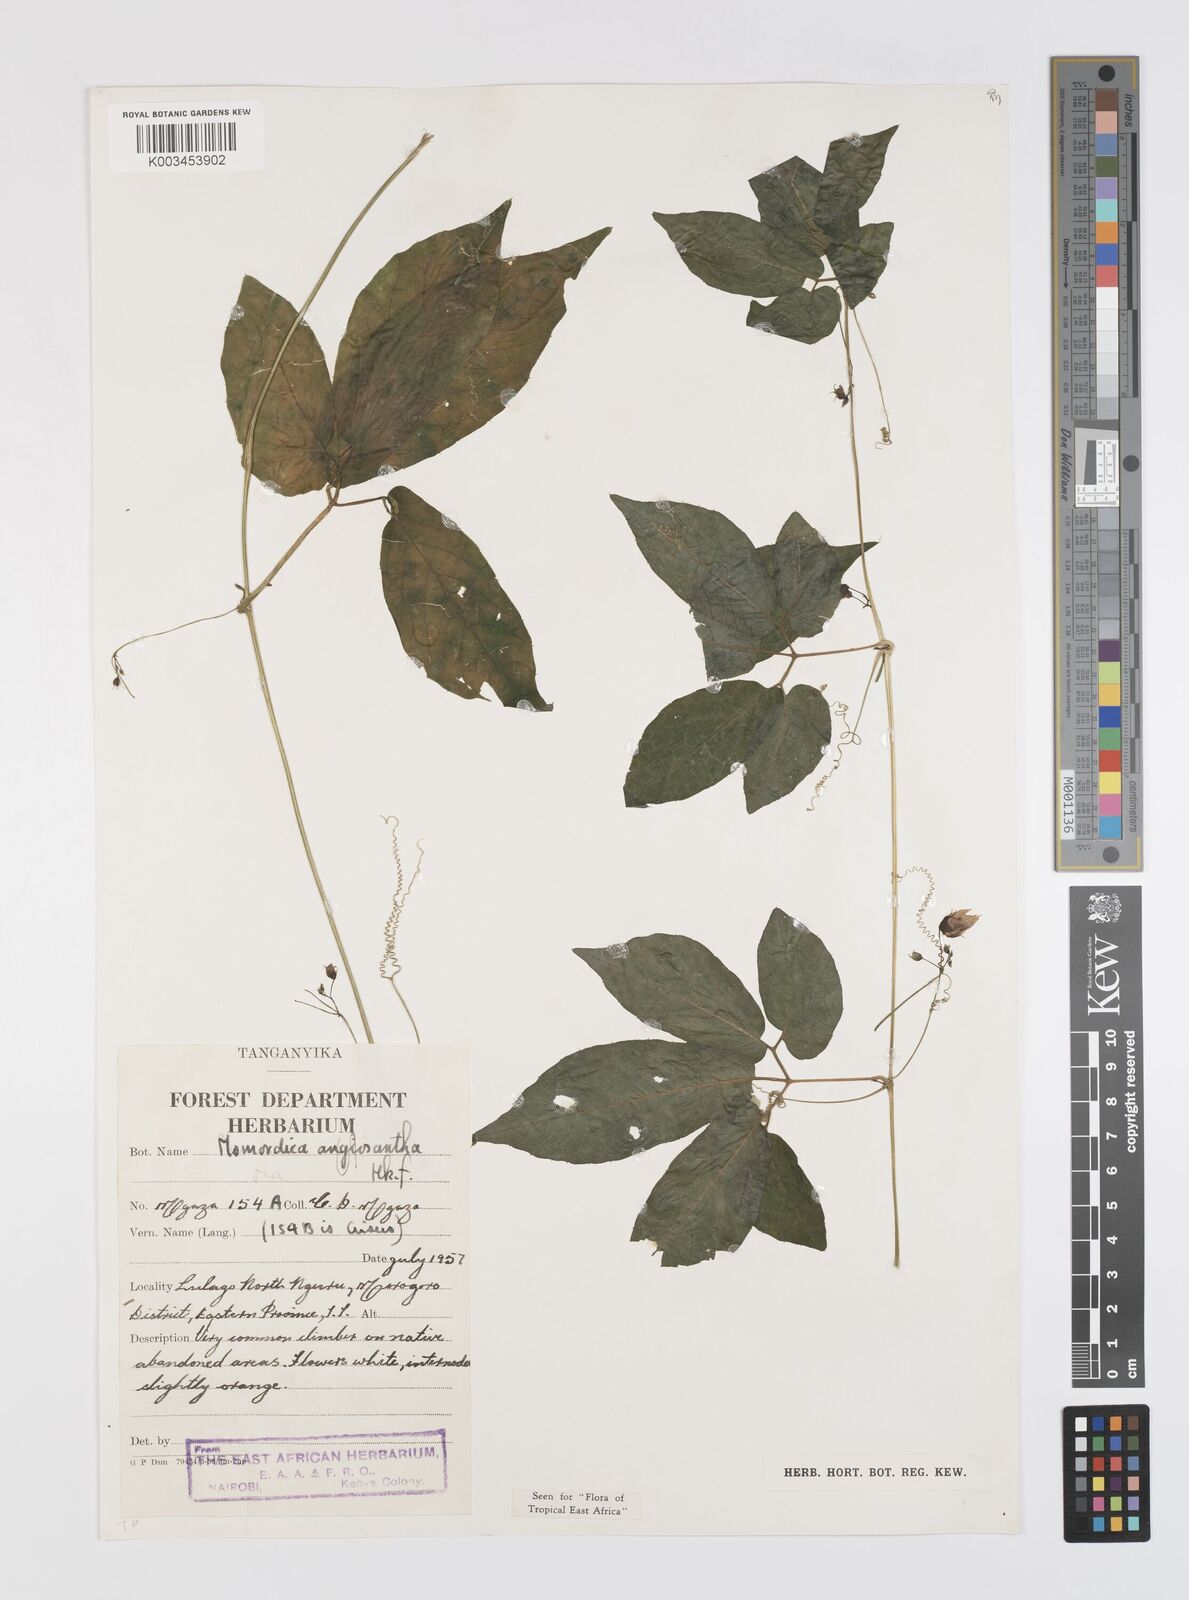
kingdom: Plantae
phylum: Tracheophyta
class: Magnoliopsida
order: Cucurbitales
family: Cucurbitaceae
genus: Momordica
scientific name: Momordica anigosantha
